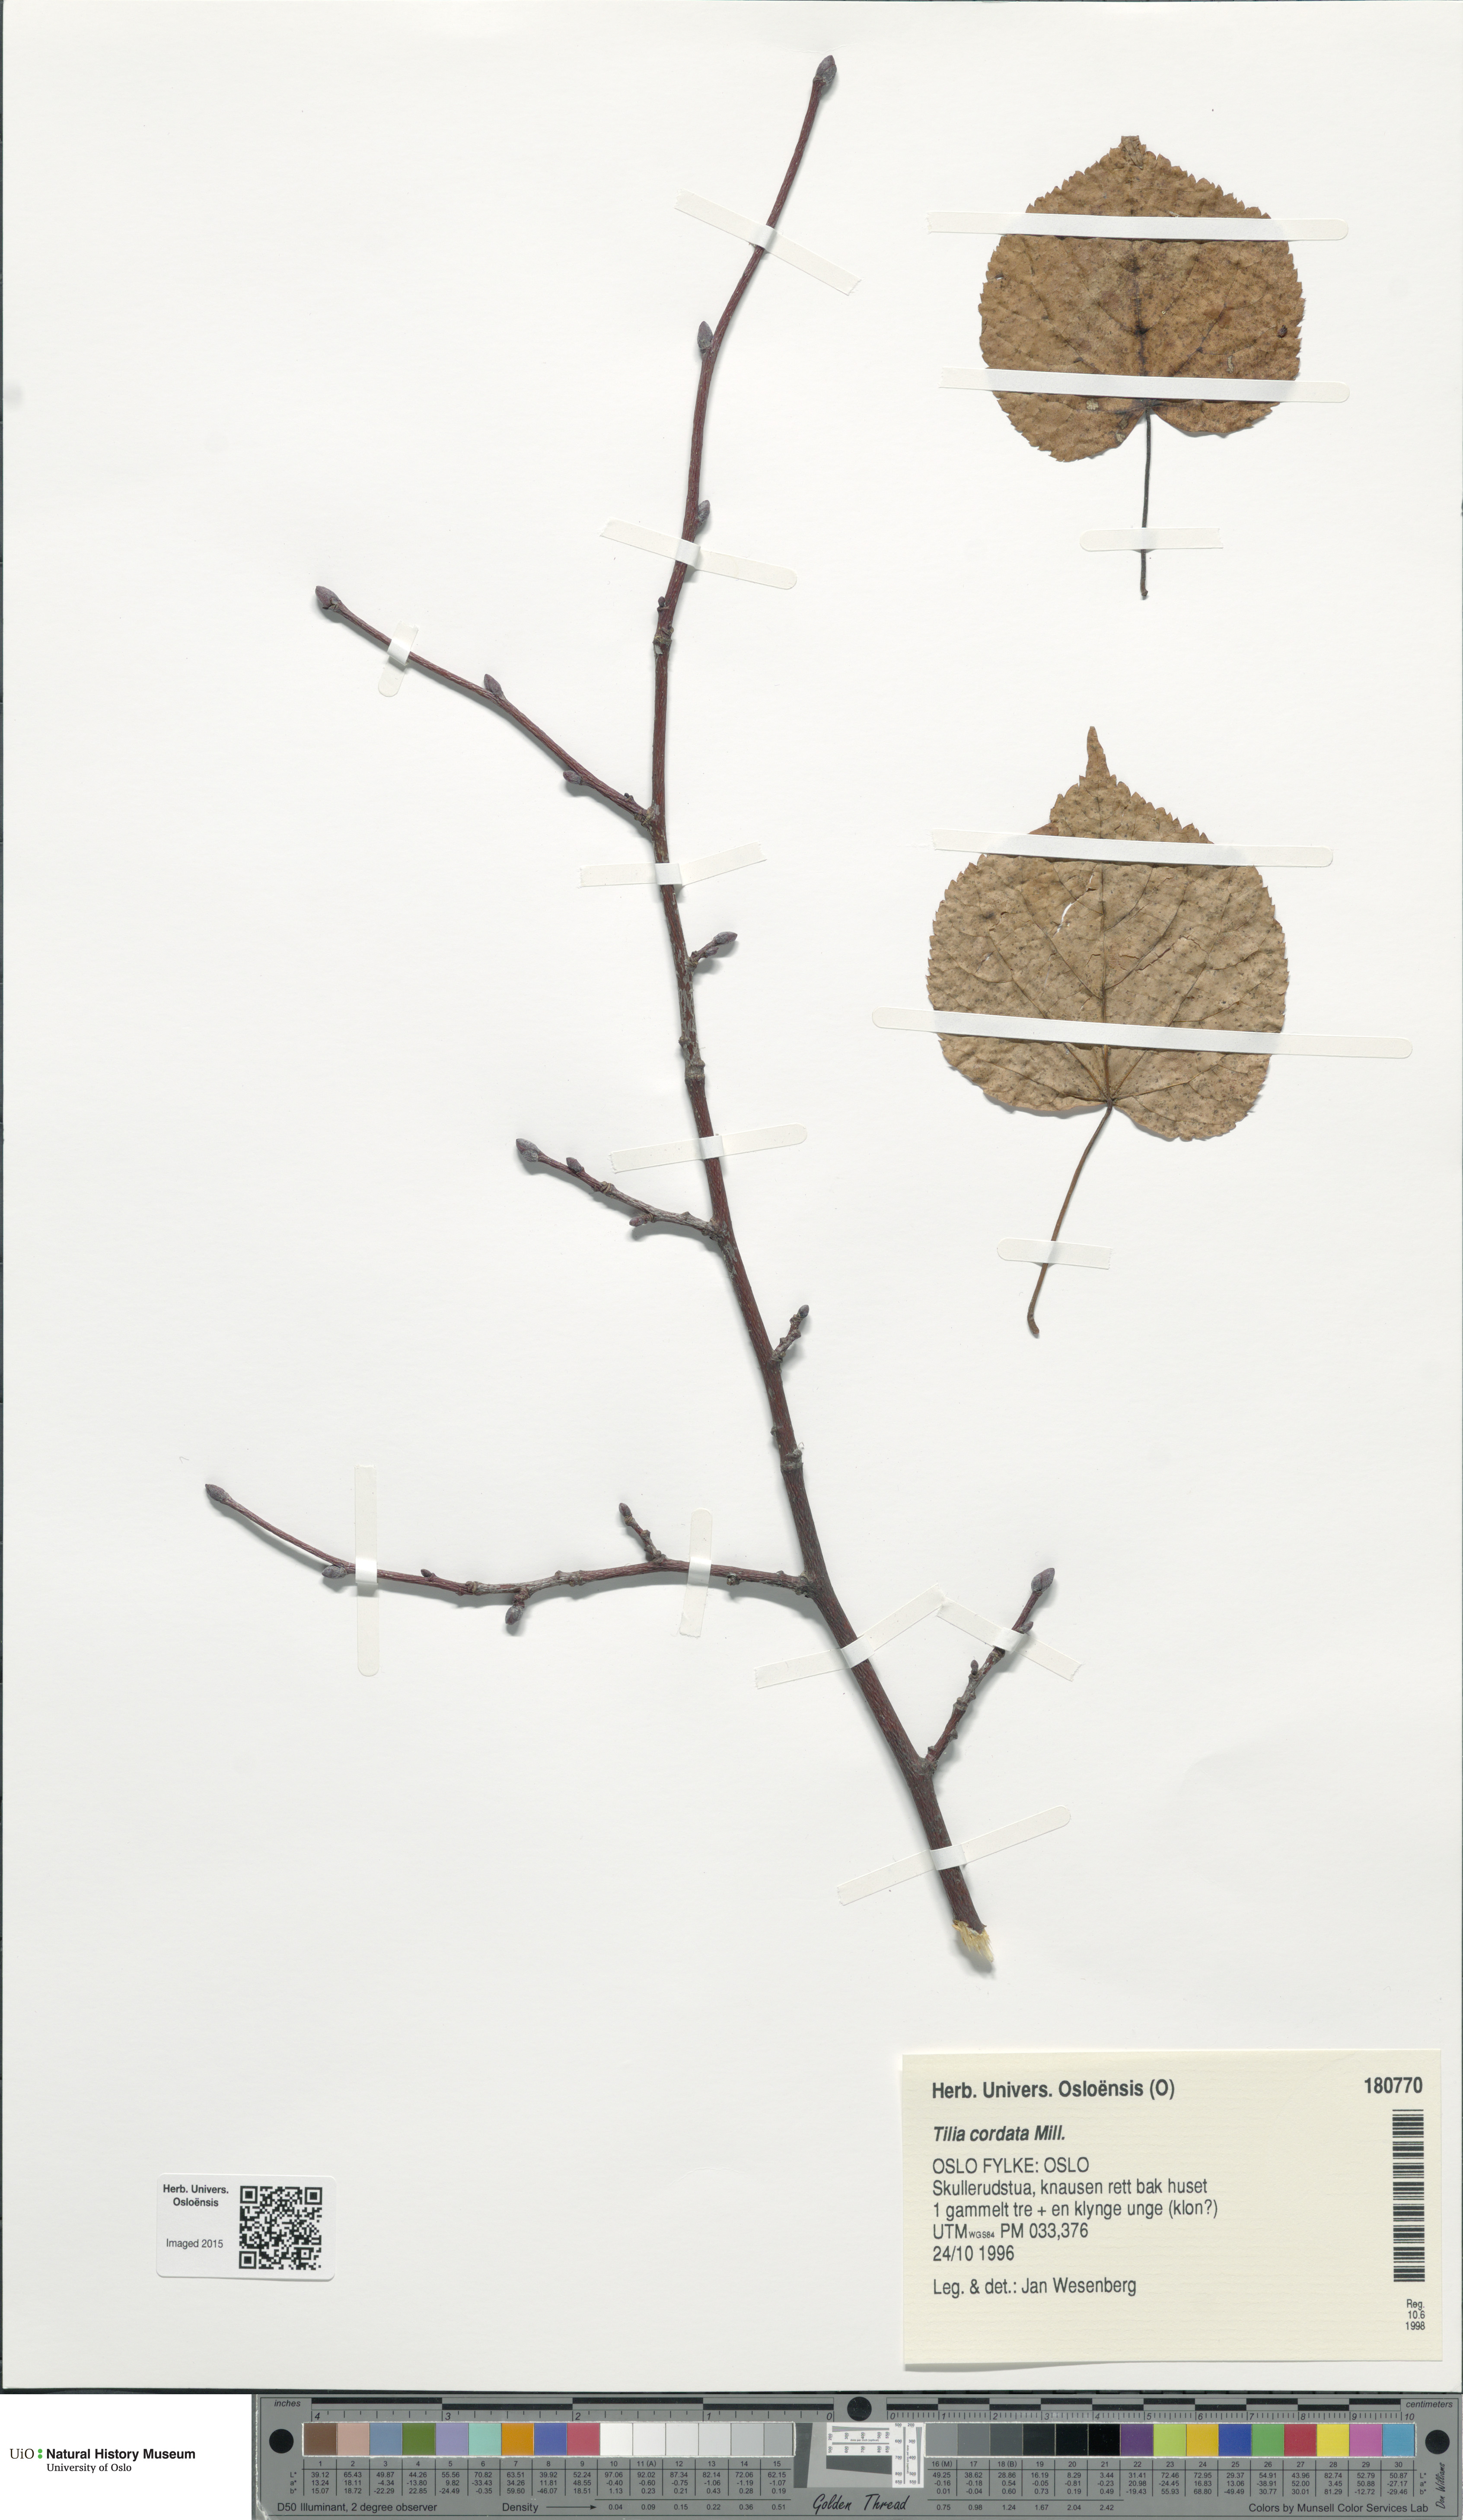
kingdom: Plantae
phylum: Tracheophyta
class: Magnoliopsida
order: Malvales
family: Malvaceae
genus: Tilia
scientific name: Tilia cordata
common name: Small-leaved lime
